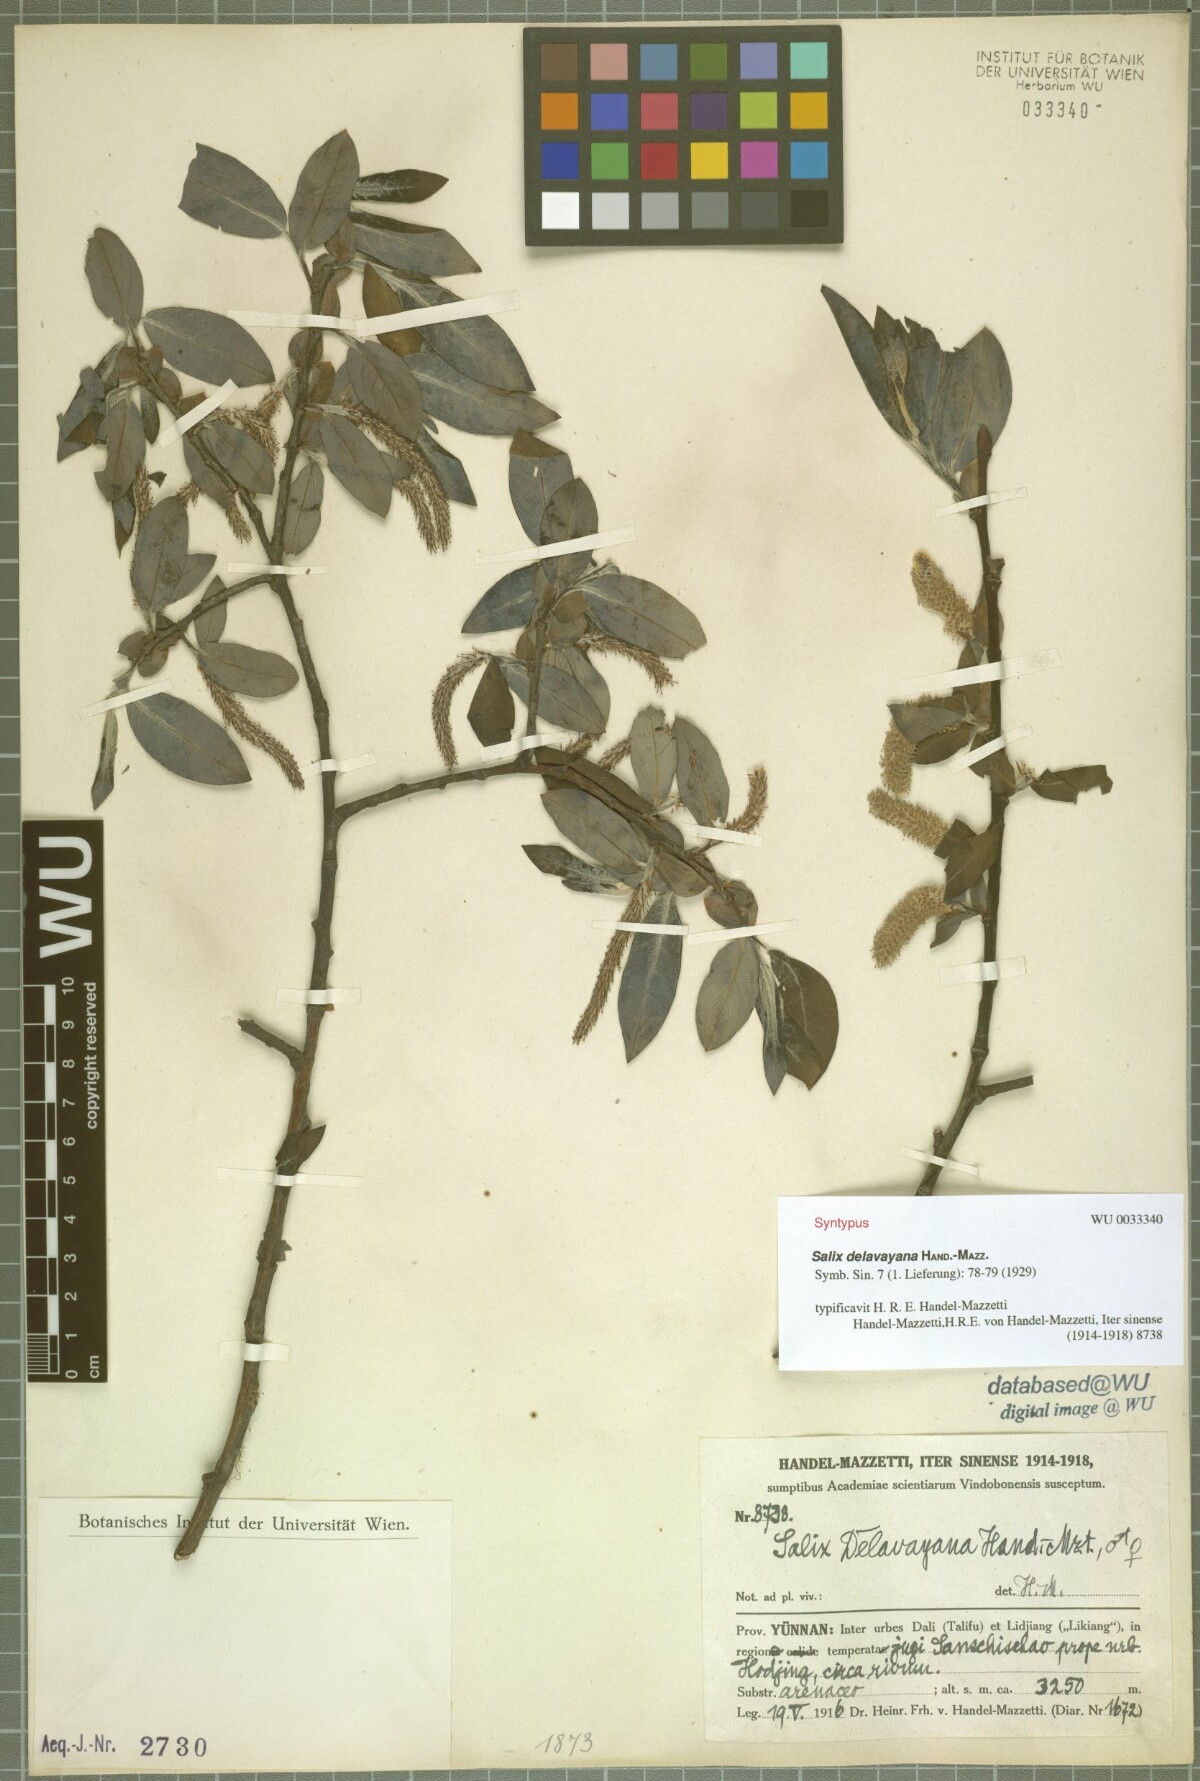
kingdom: Plantae
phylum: Tracheophyta
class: Magnoliopsida
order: Malpighiales
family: Salicaceae
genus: Salix
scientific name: Salix delavayana
